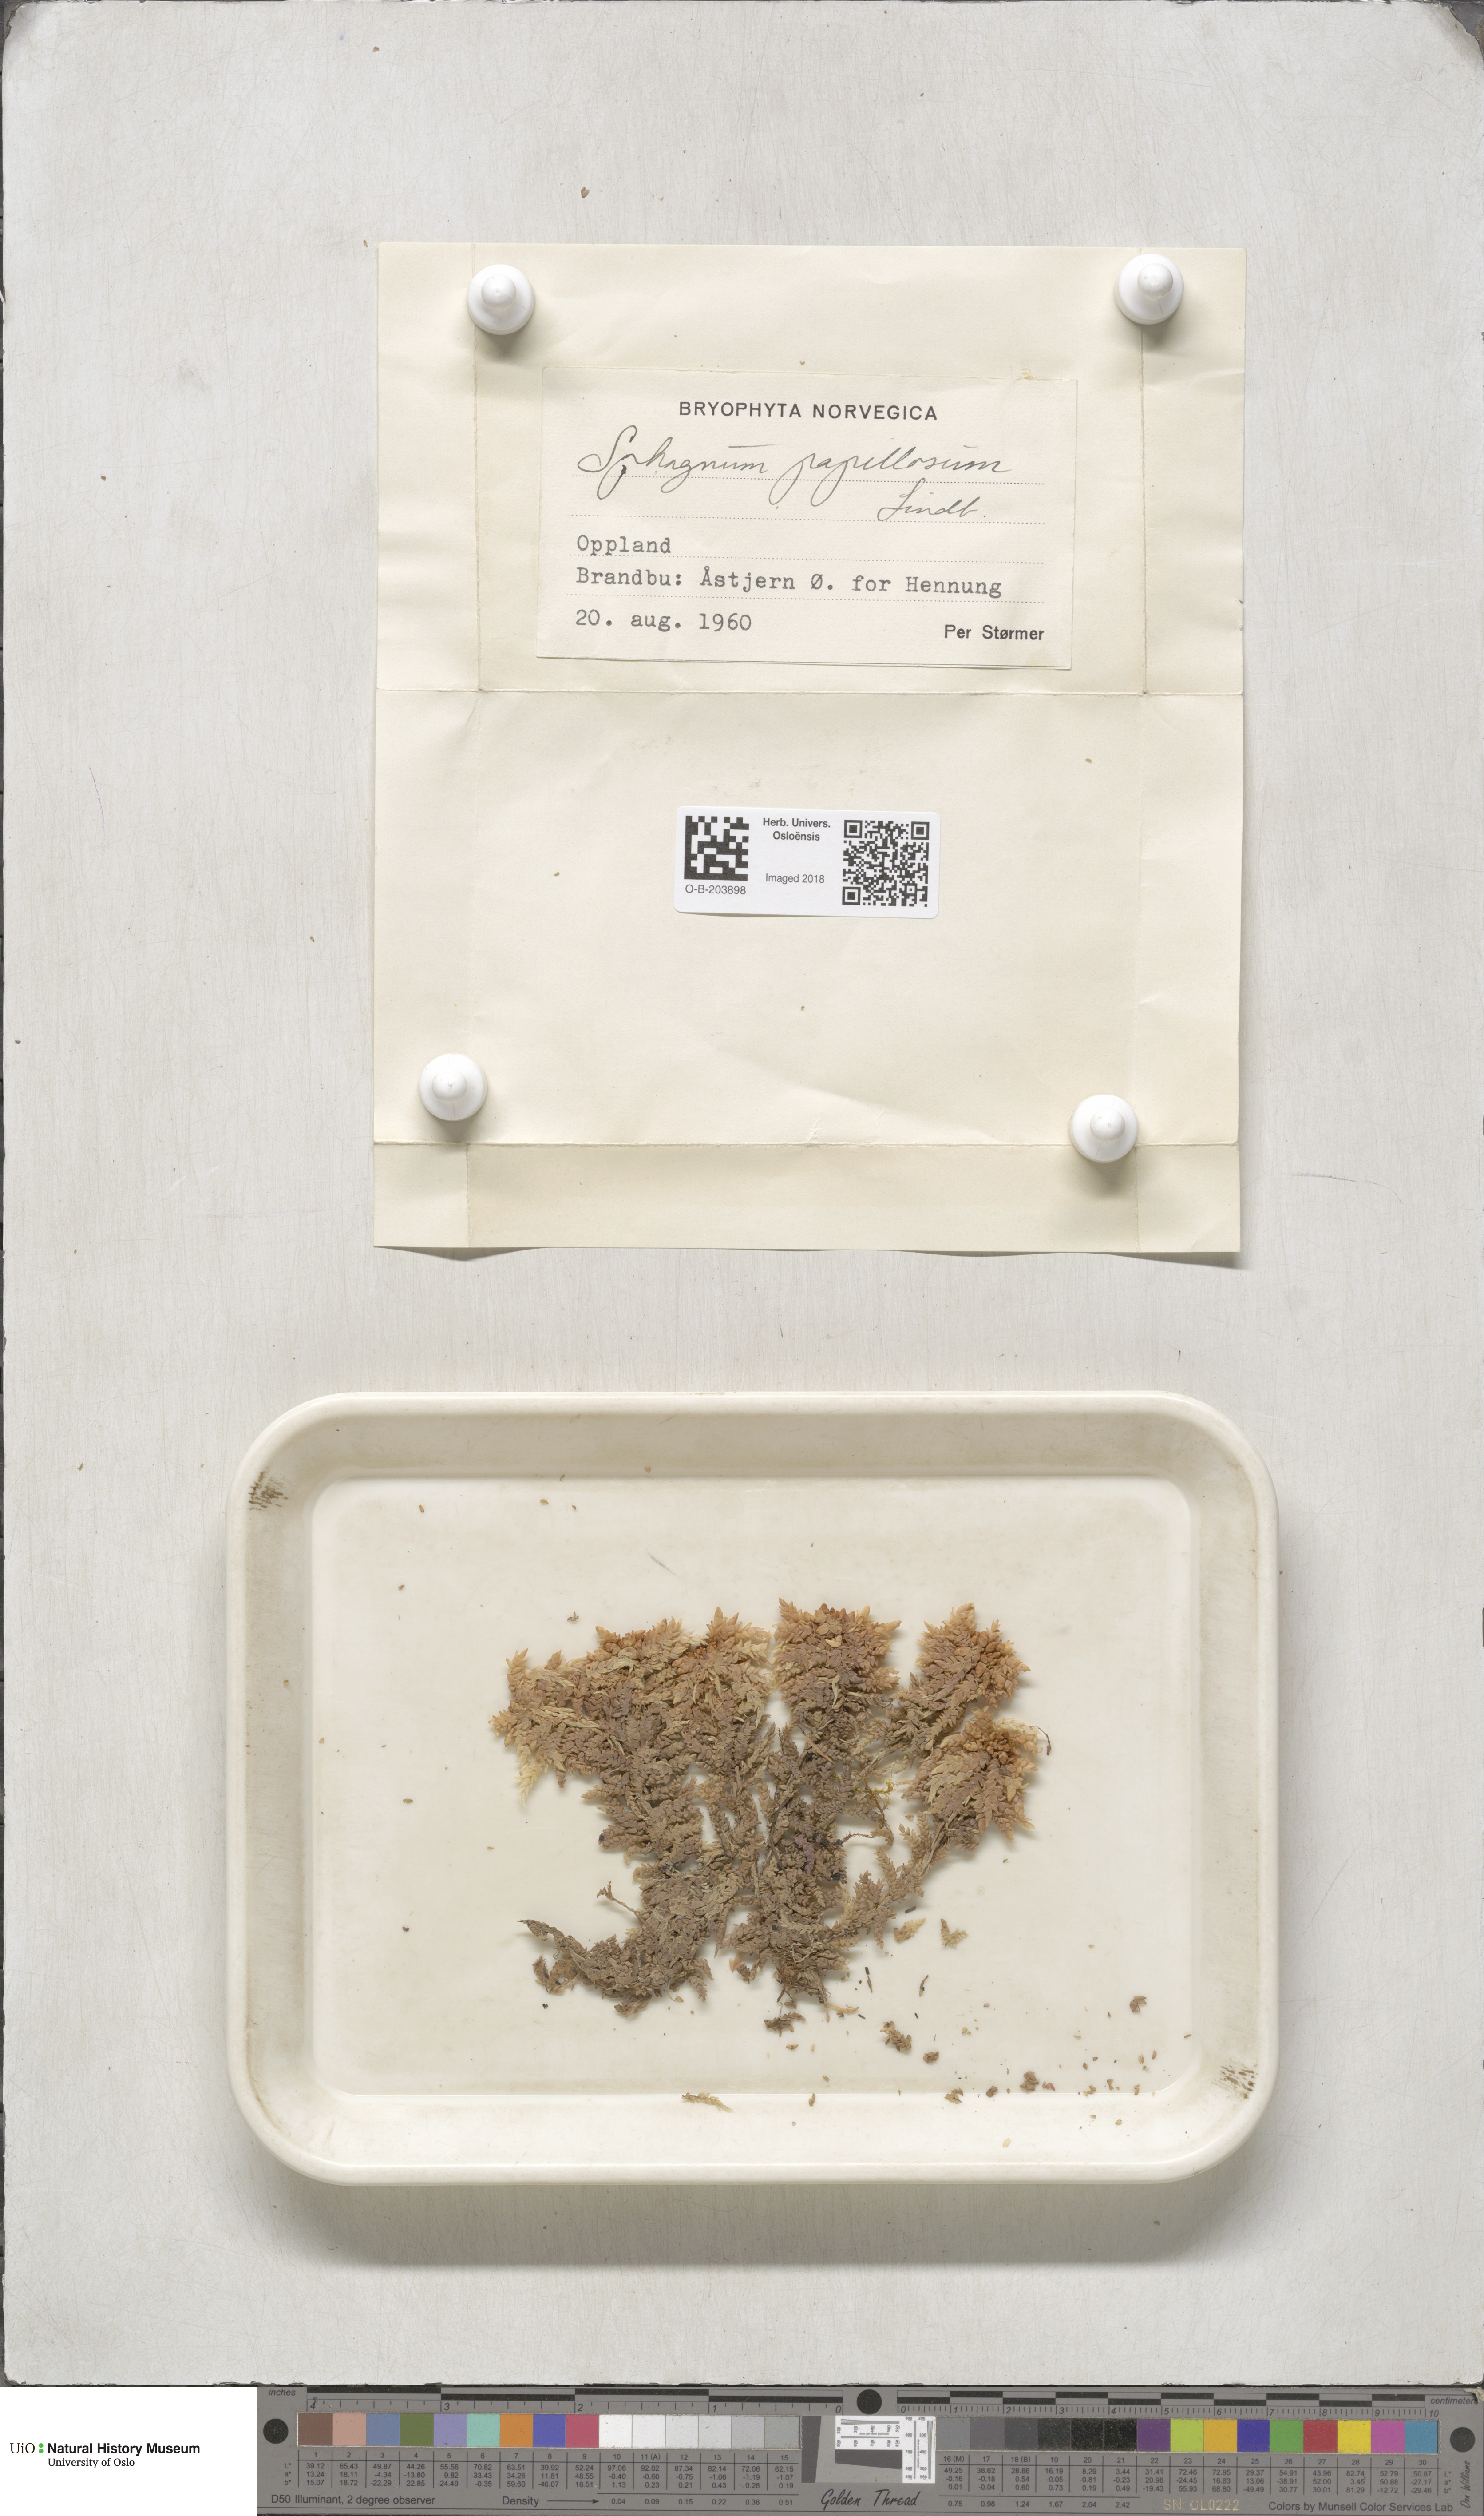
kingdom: Plantae
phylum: Bryophyta
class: Sphagnopsida
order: Sphagnales
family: Sphagnaceae
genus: Sphagnum
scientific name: Sphagnum papillosum
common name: Papillose peat moss
